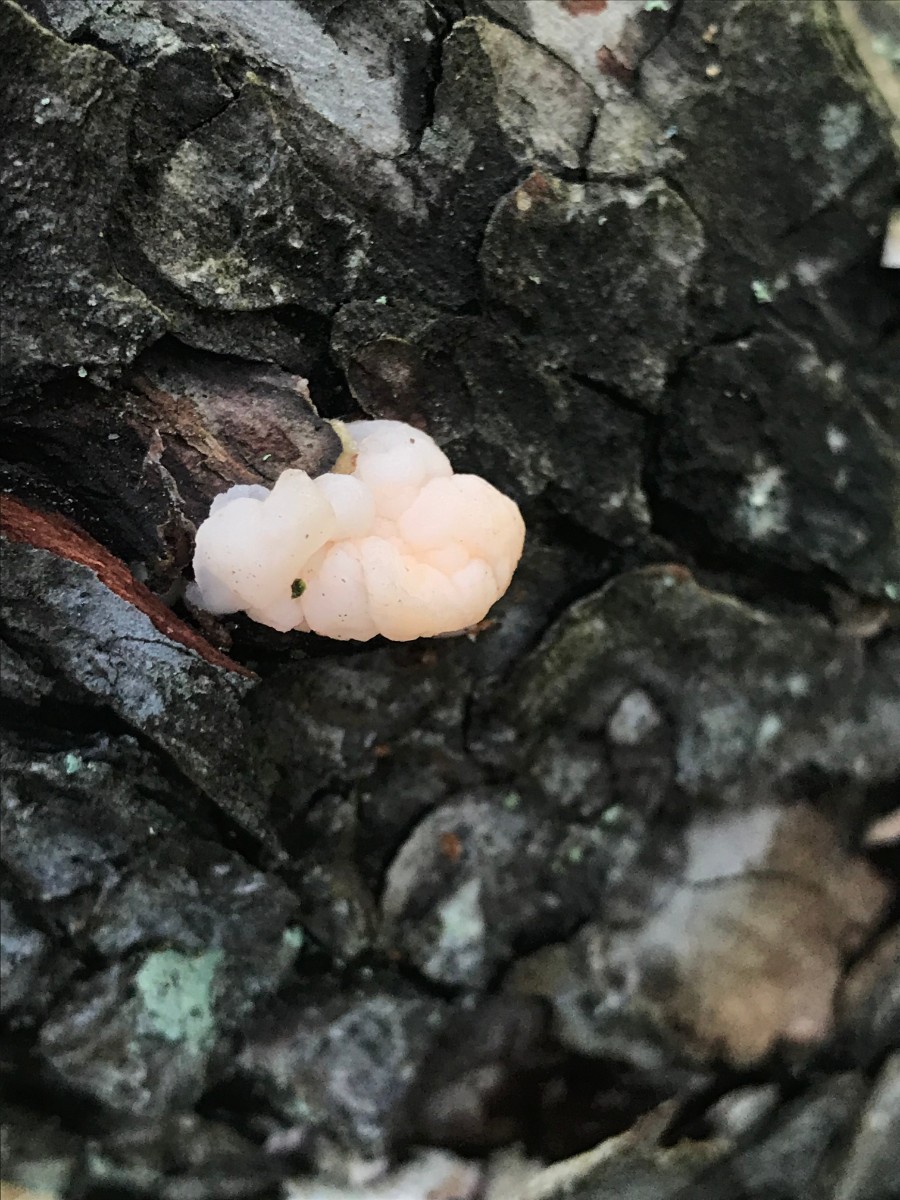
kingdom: Fungi
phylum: Basidiomycota
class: Tremellomycetes
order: Tremellales
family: Naemateliaceae
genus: Naematelia
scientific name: Naematelia encephala
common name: fyrre-bævresvamp
